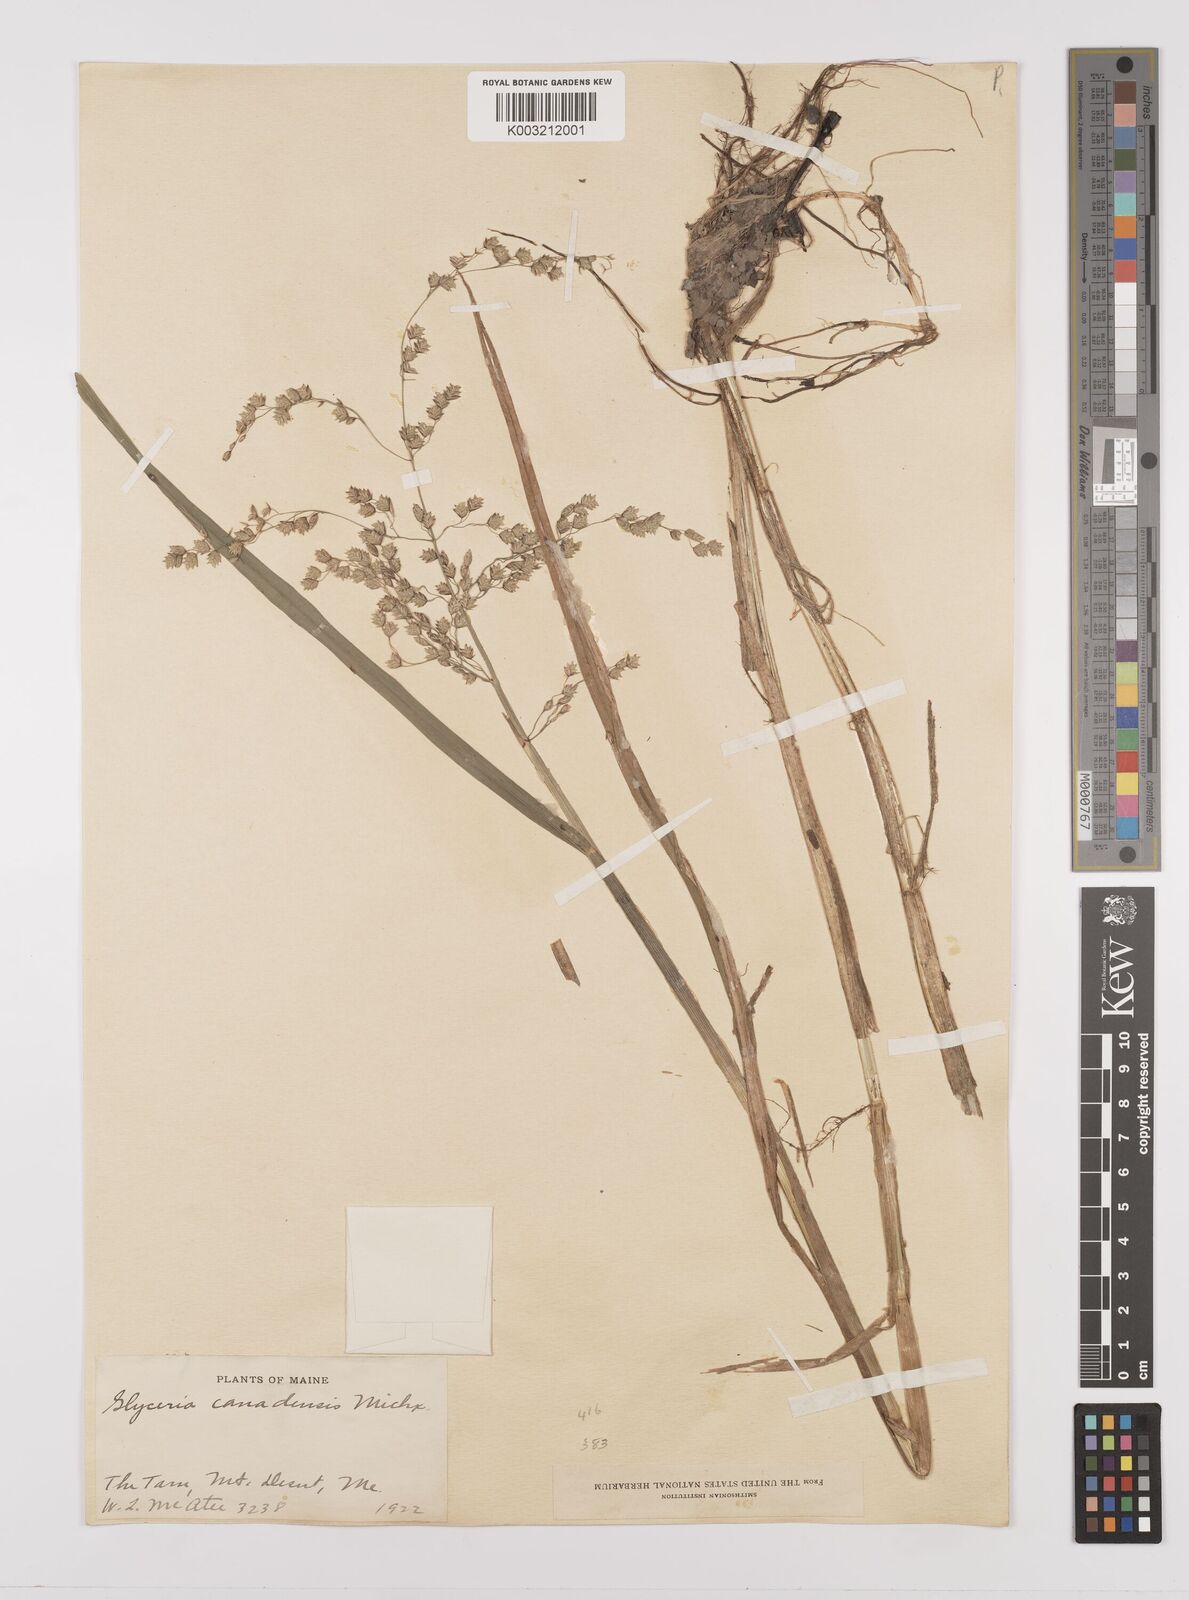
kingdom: Plantae
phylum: Tracheophyta
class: Liliopsida
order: Poales
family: Poaceae
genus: Glyceria
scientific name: Glyceria canadensis
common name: Canada mannagrass
